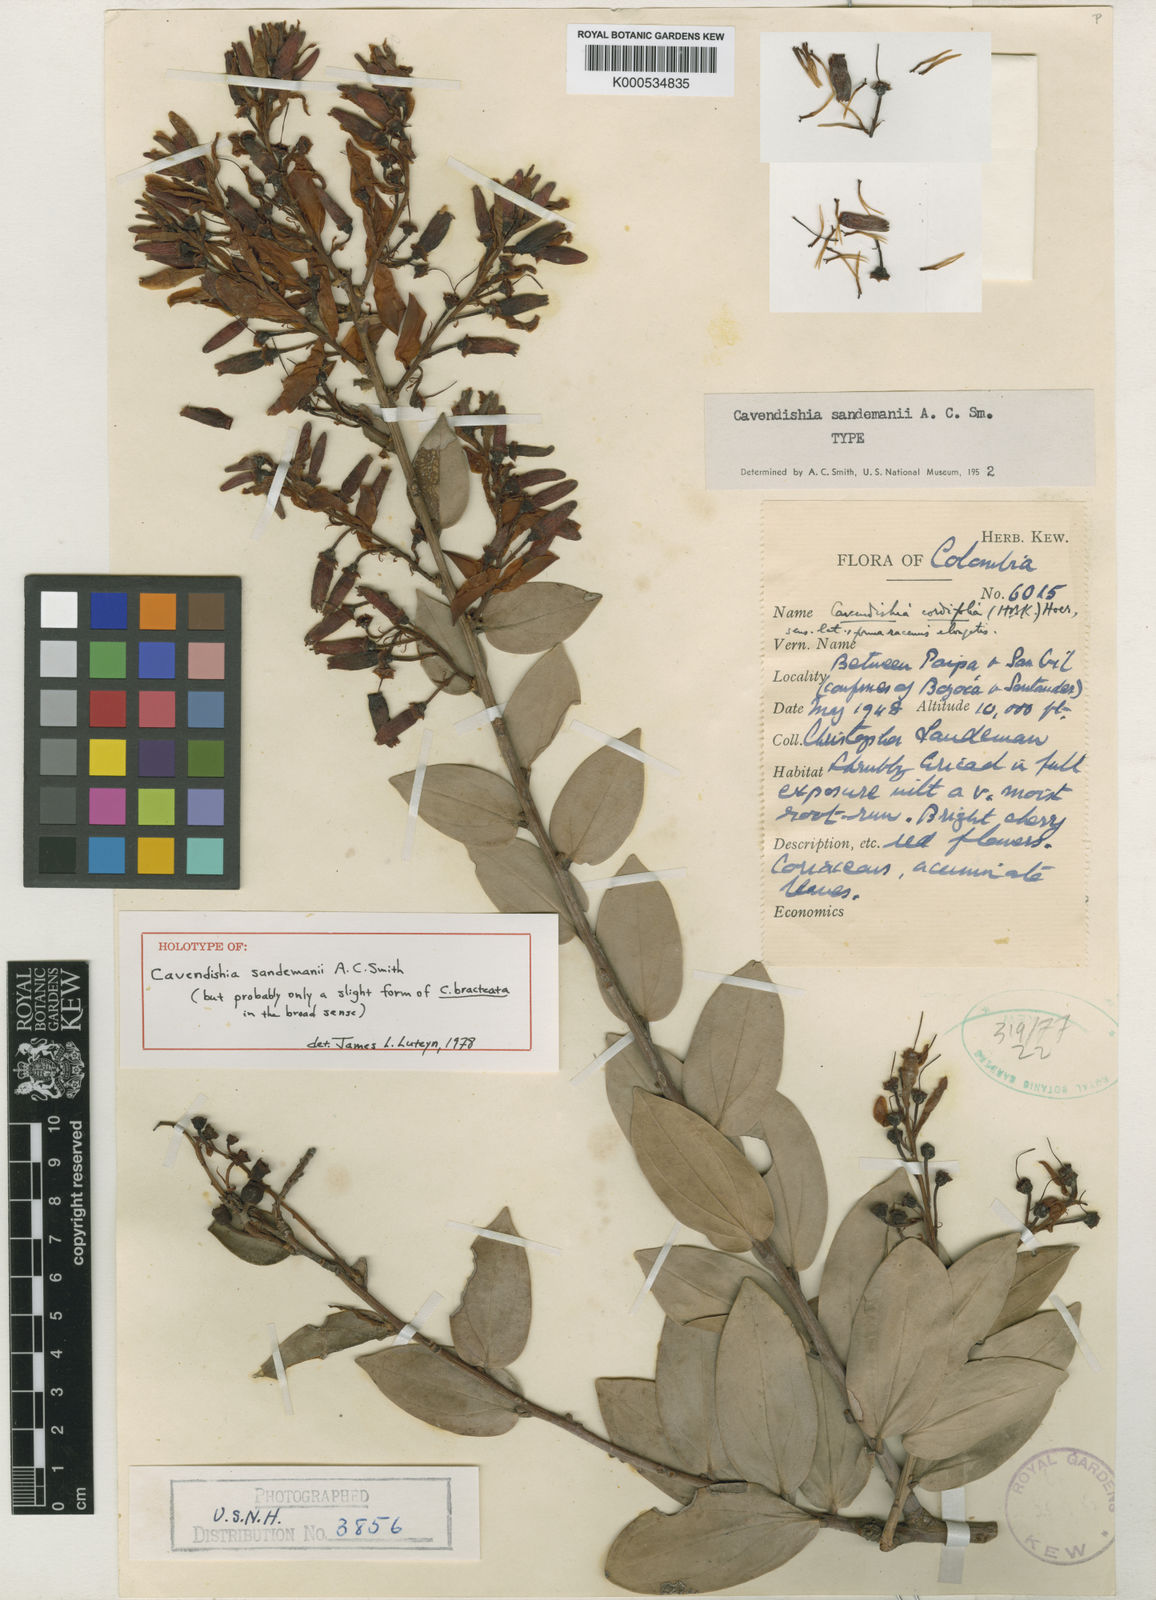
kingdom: Plantae
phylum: Tracheophyta
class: Magnoliopsida
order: Ericales
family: Ericaceae
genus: Cavendishia
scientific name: Cavendishia bracteata
